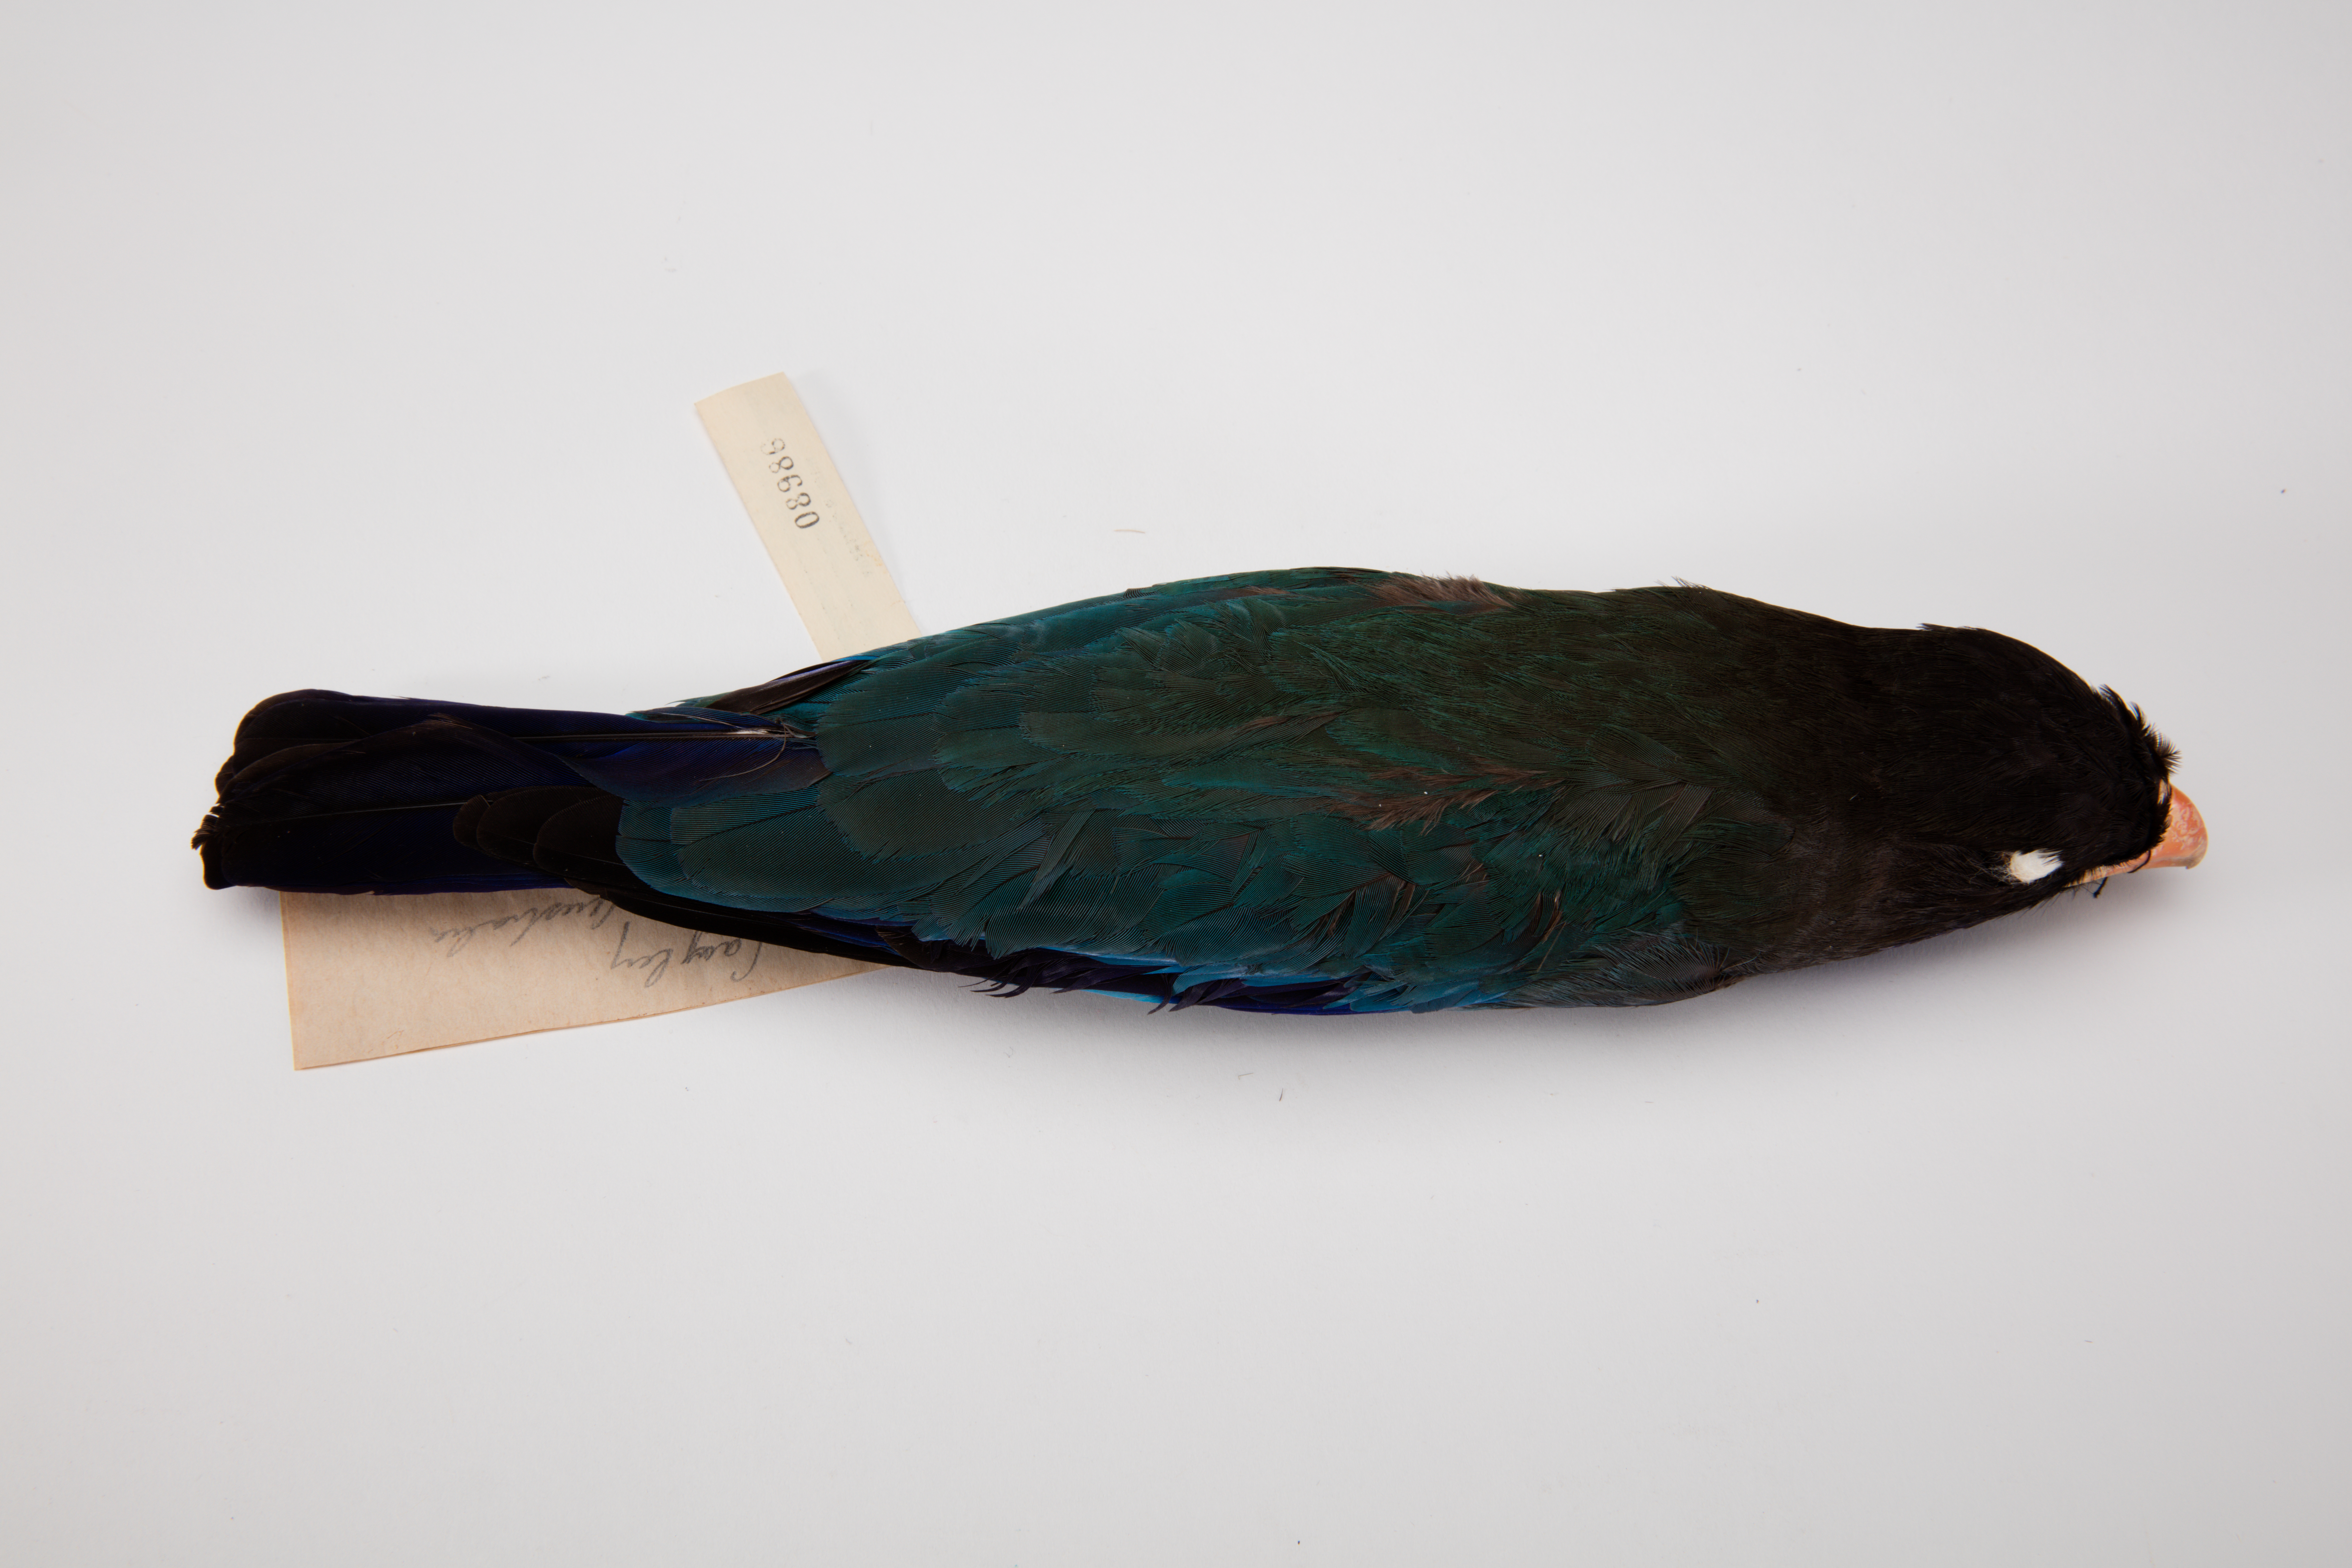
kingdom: Animalia
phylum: Chordata
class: Aves
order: Coraciiformes
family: Coraciidae
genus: Eurystomus
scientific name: Eurystomus orientalis
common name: Oriental dollarbird
